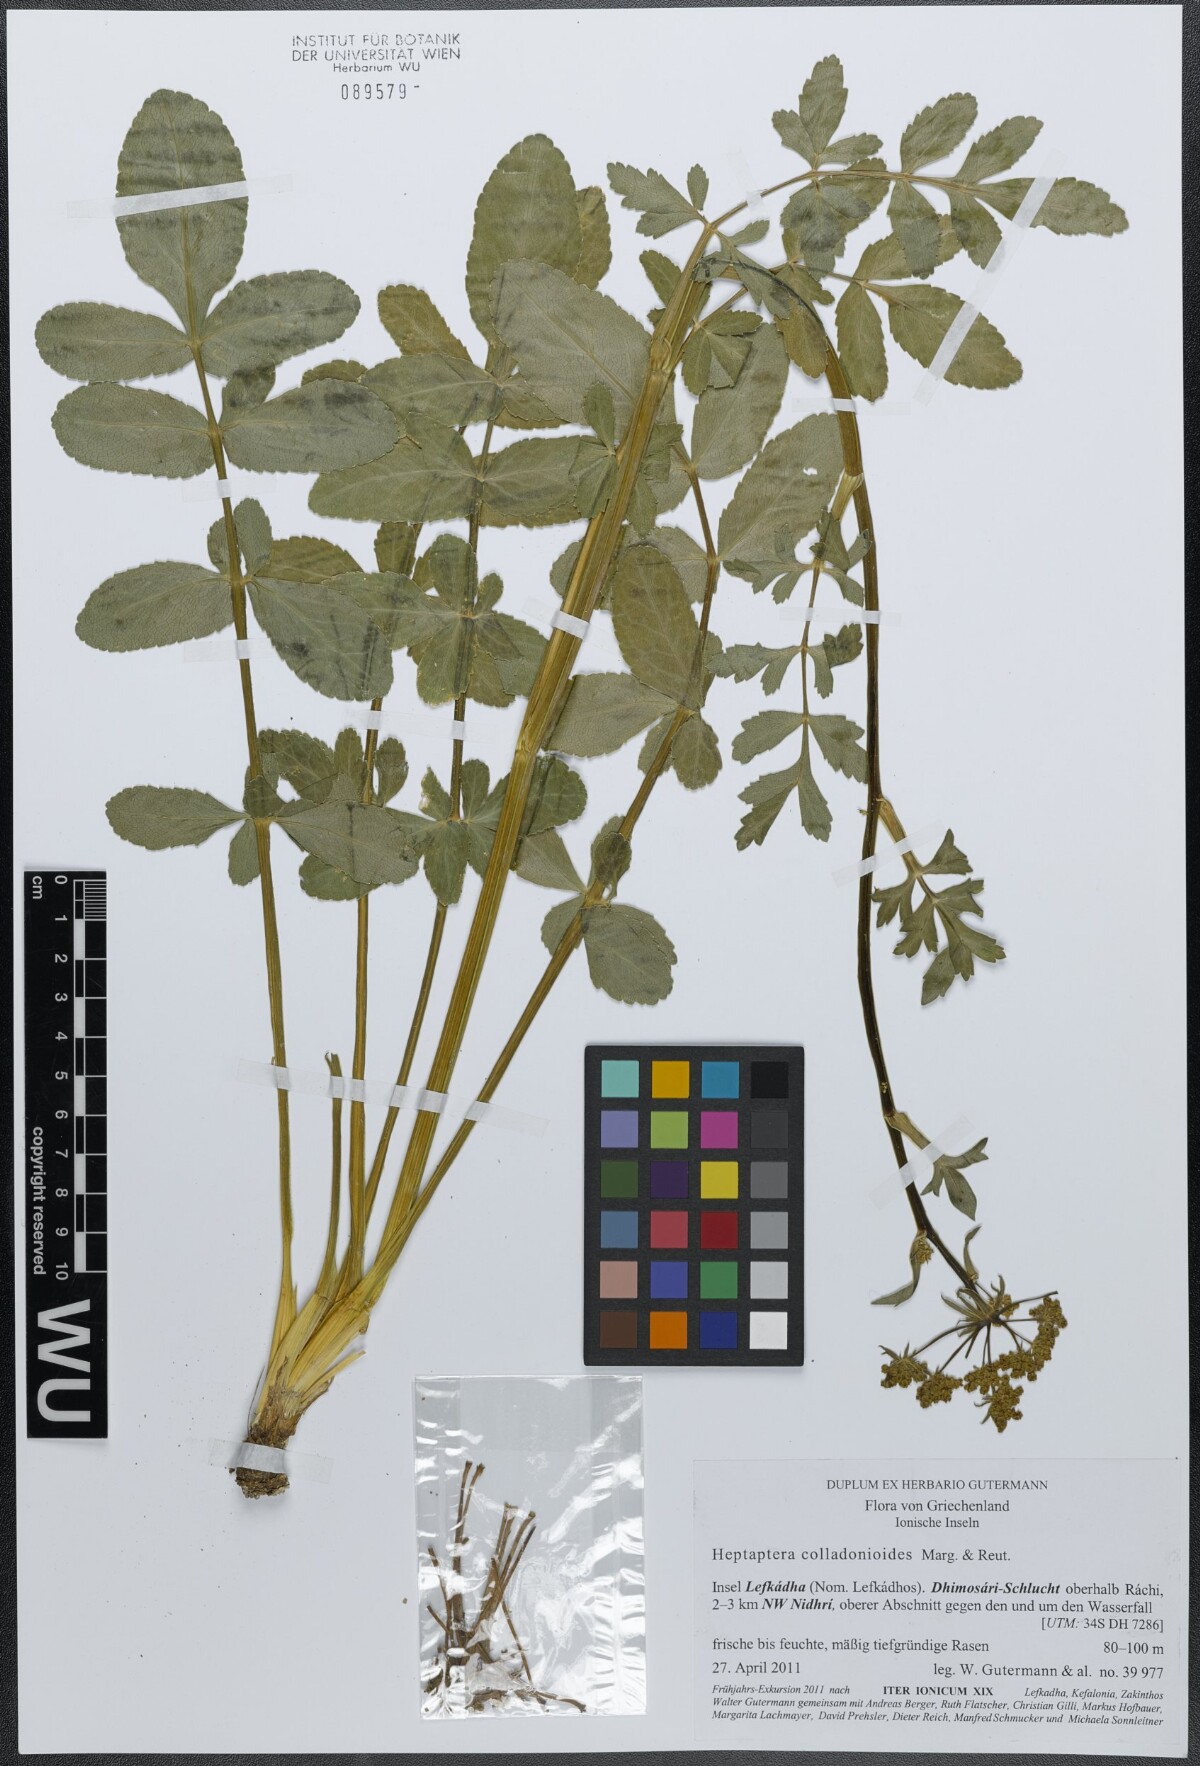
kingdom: Plantae
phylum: Tracheophyta
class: Magnoliopsida
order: Apiales
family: Apiaceae
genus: Heptaptera
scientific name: Heptaptera colladonioides
